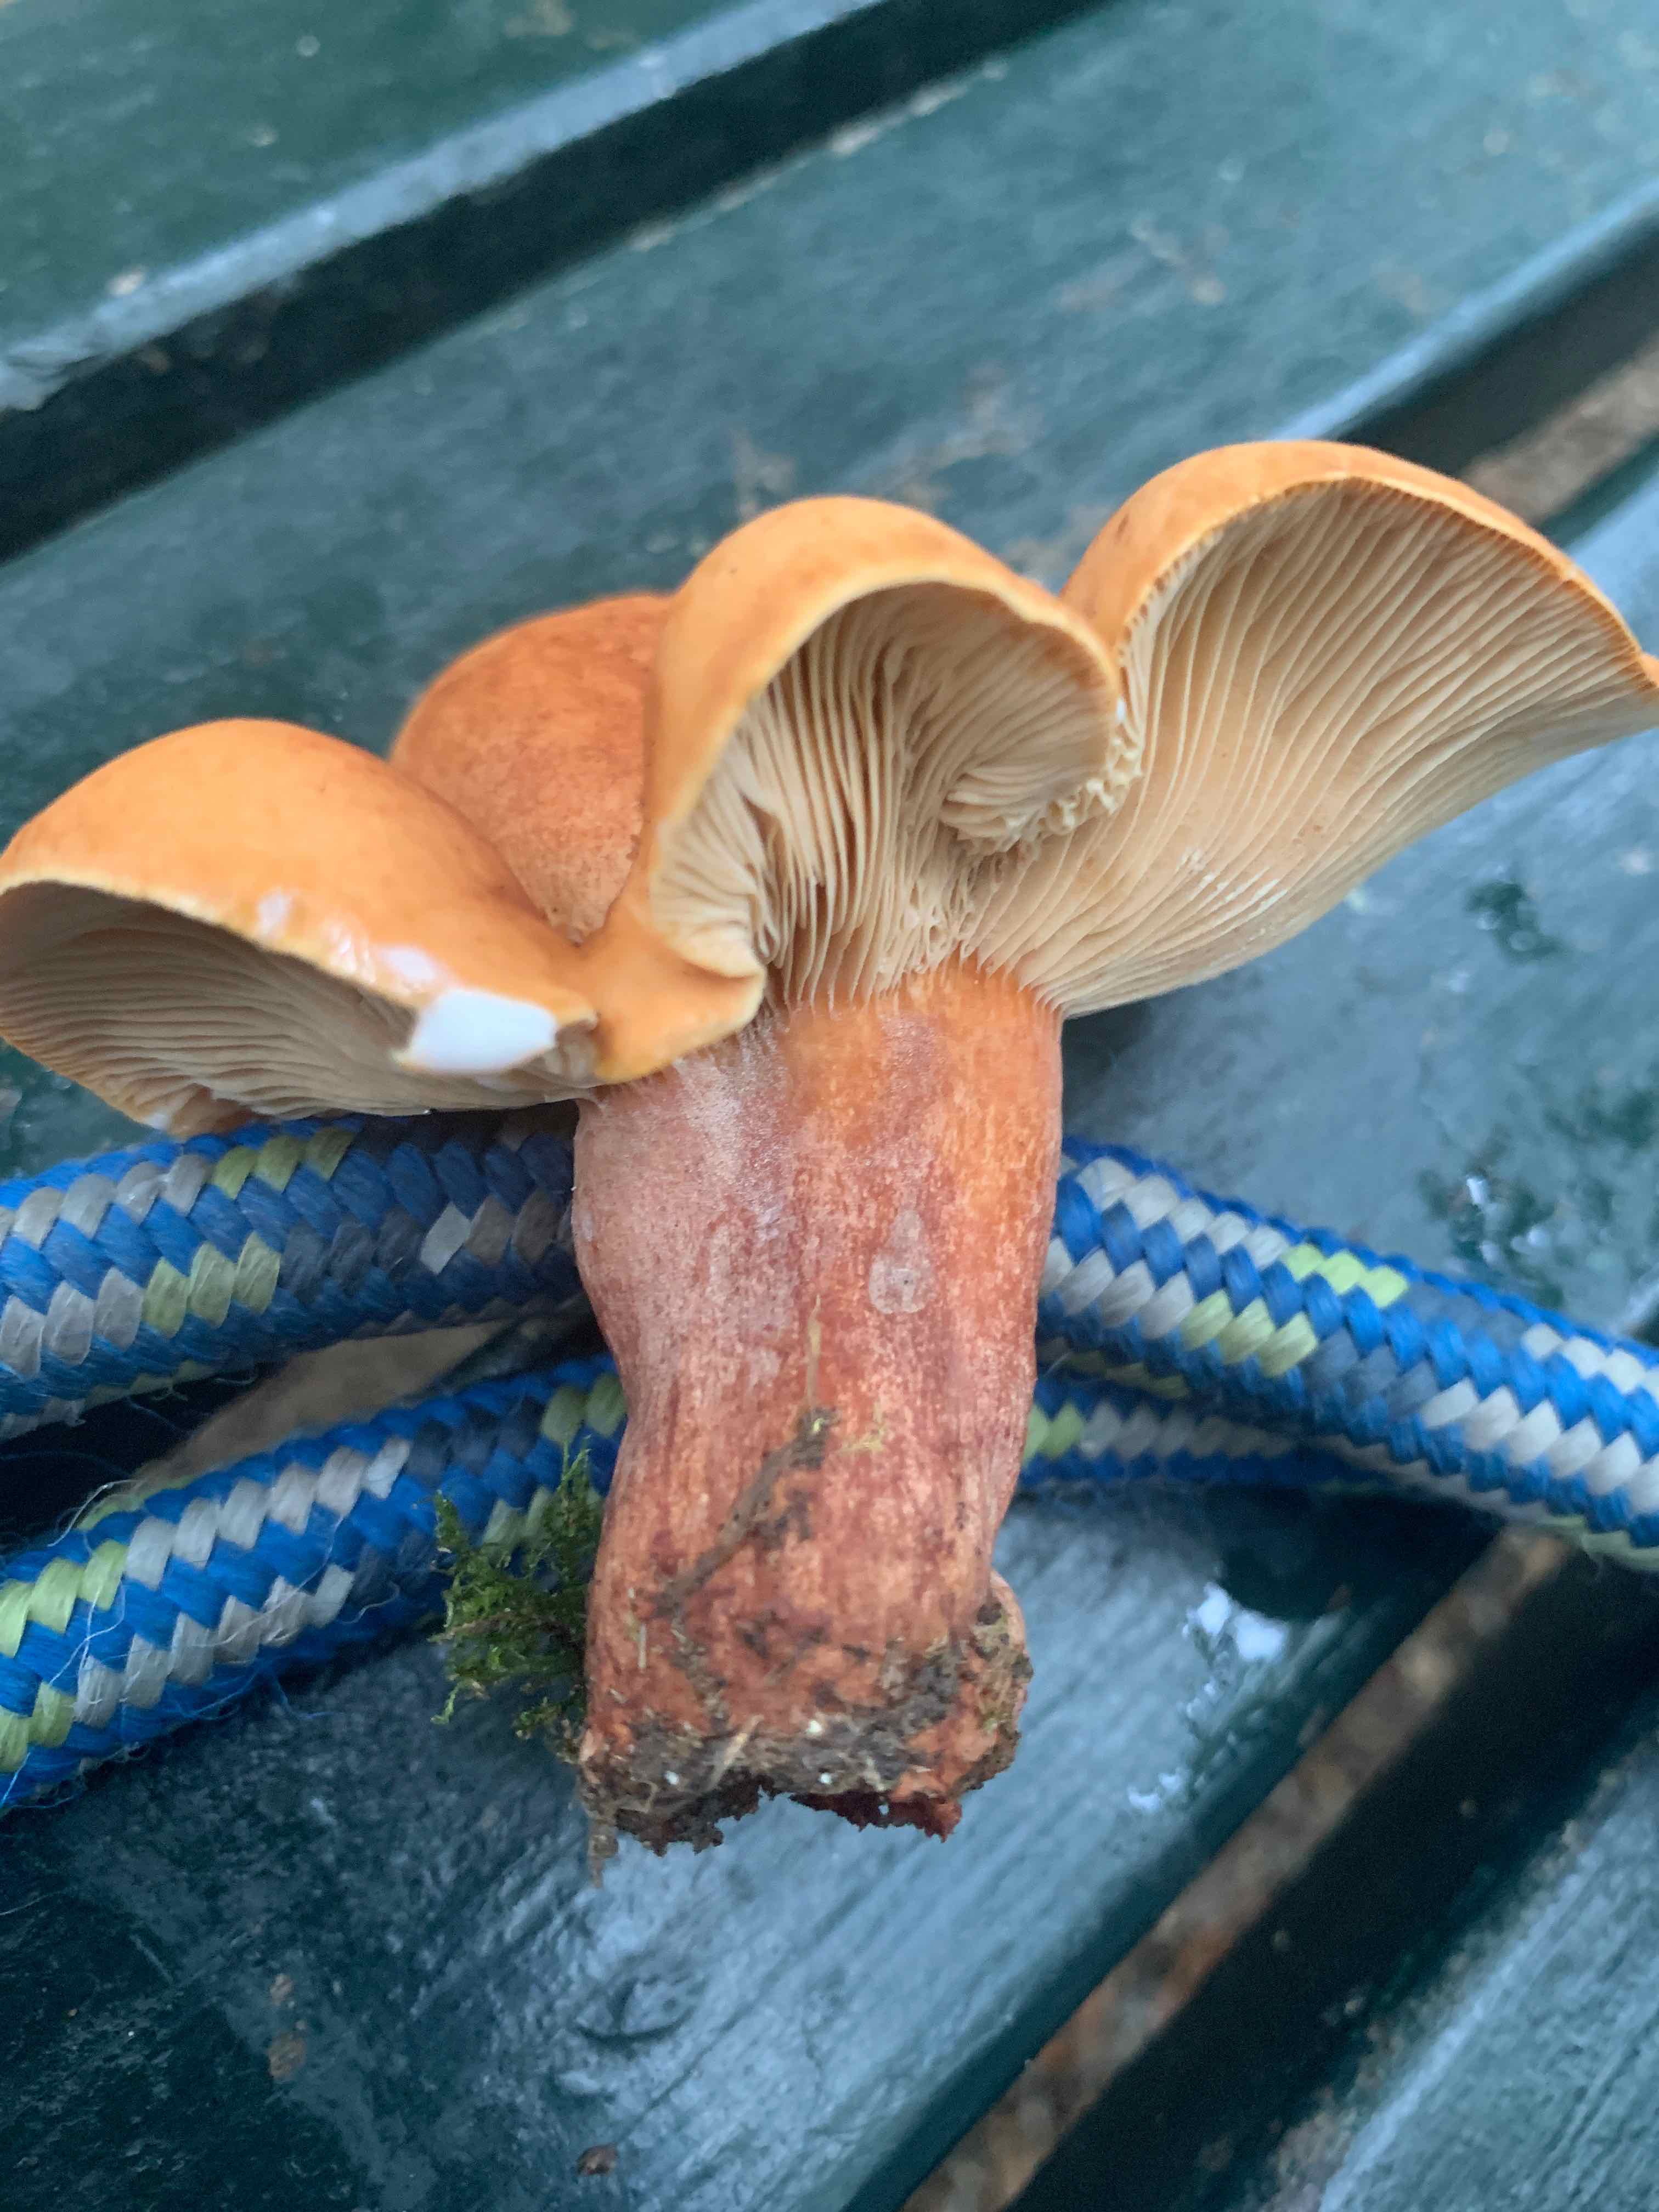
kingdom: Fungi
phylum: Basidiomycota
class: Agaricomycetes
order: Russulales
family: Russulaceae
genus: Lactarius
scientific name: Lactarius
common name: mælkehat
